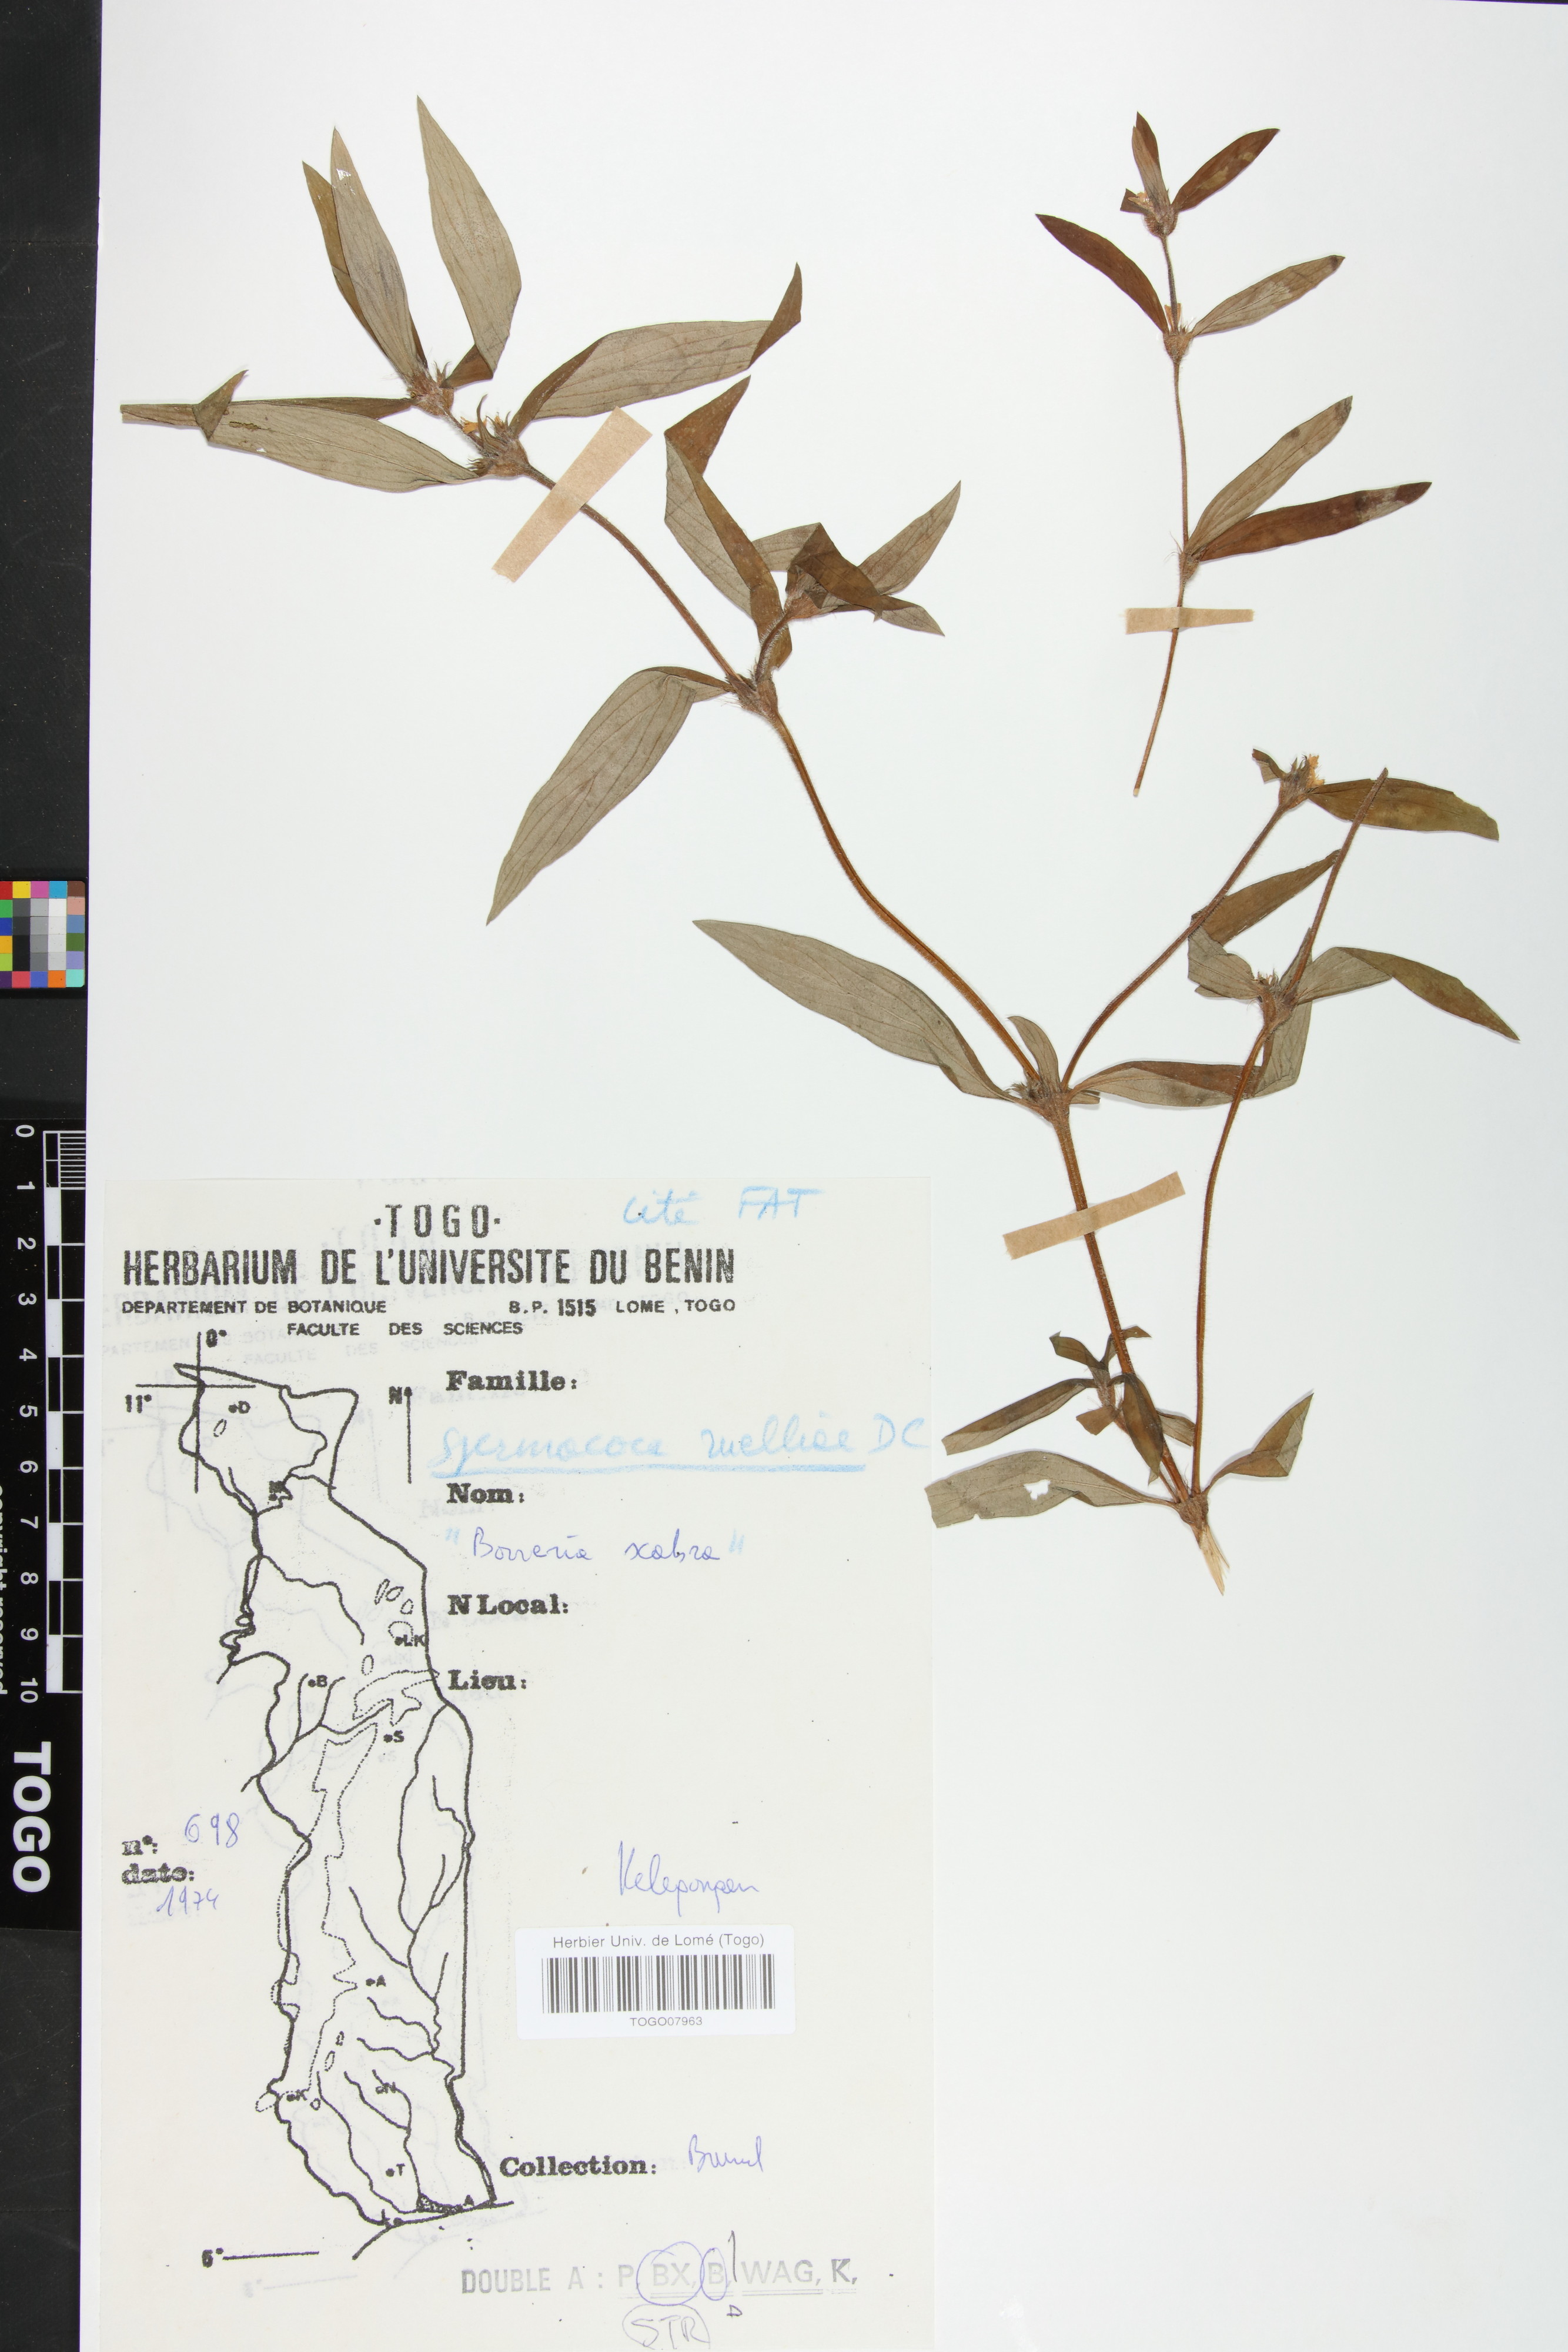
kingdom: Plantae
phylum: Tracheophyta
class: Magnoliopsida
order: Gentianales
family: Rubiaceae
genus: Spermacoce
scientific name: Spermacoce ruelliae
